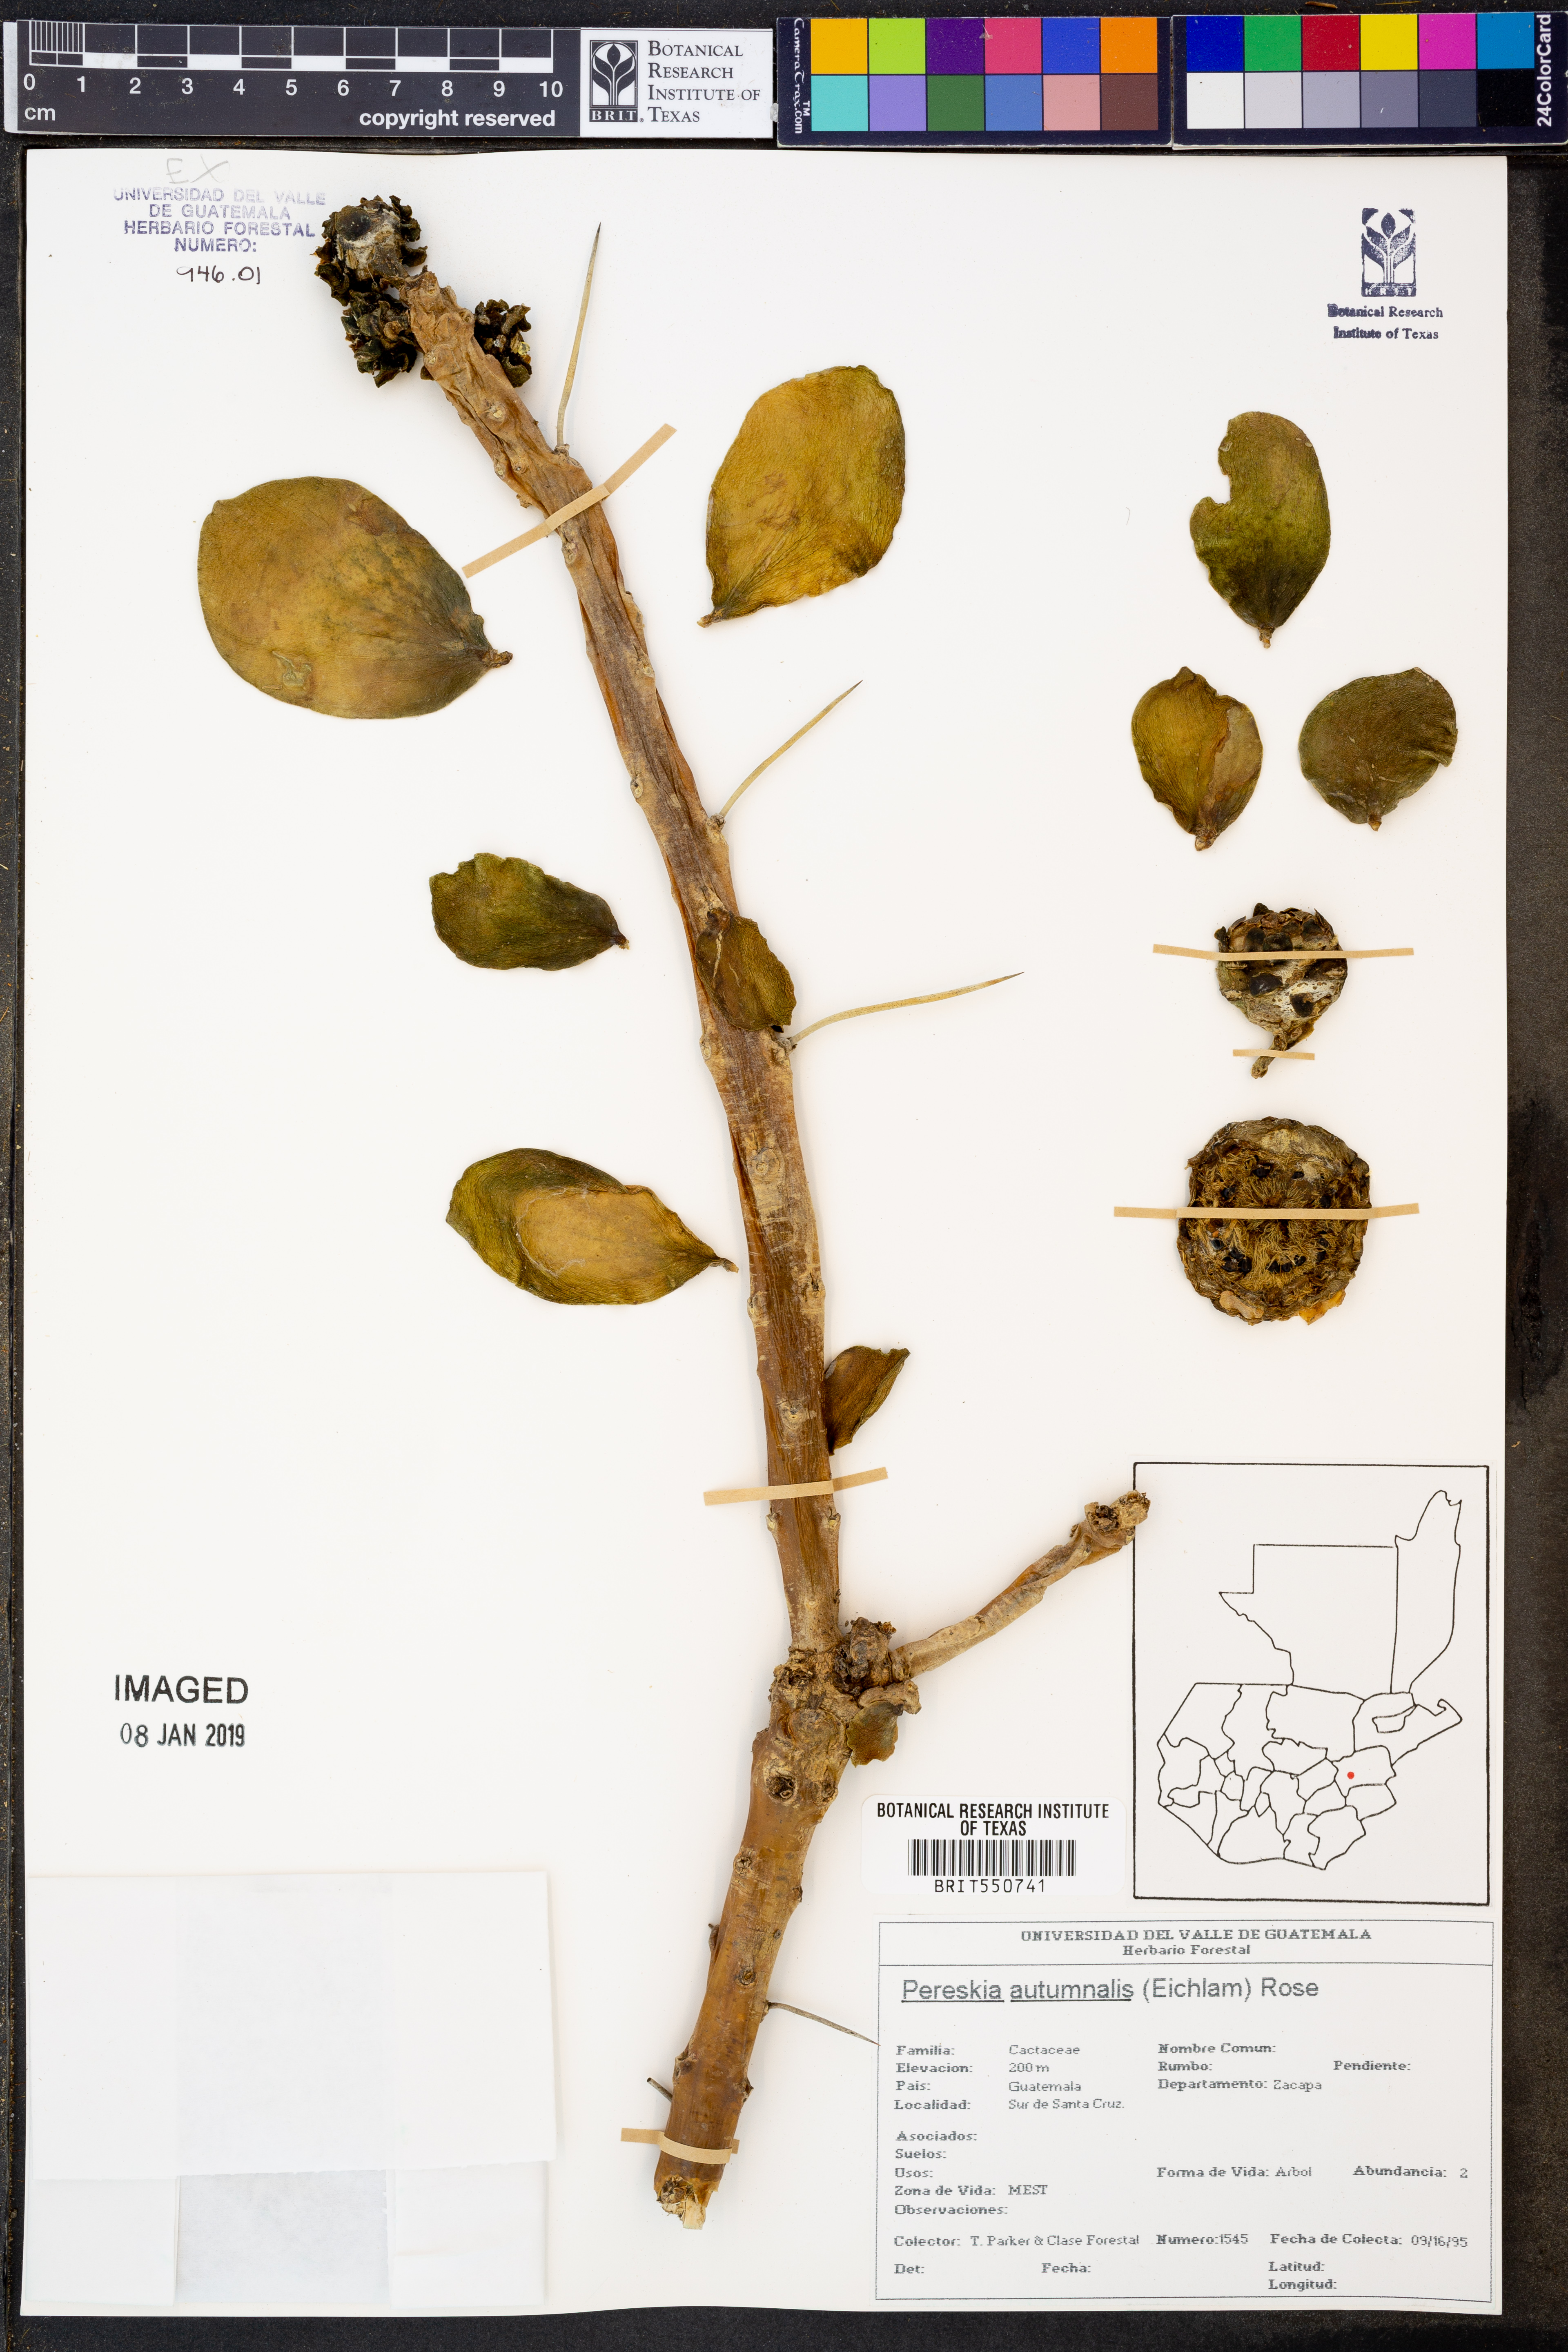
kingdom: Plantae
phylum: Tracheophyta
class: Magnoliopsida
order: Caryophyllales
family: Cactaceae
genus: Leuenbergeria
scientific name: Leuenbergeria lychnidiflora
